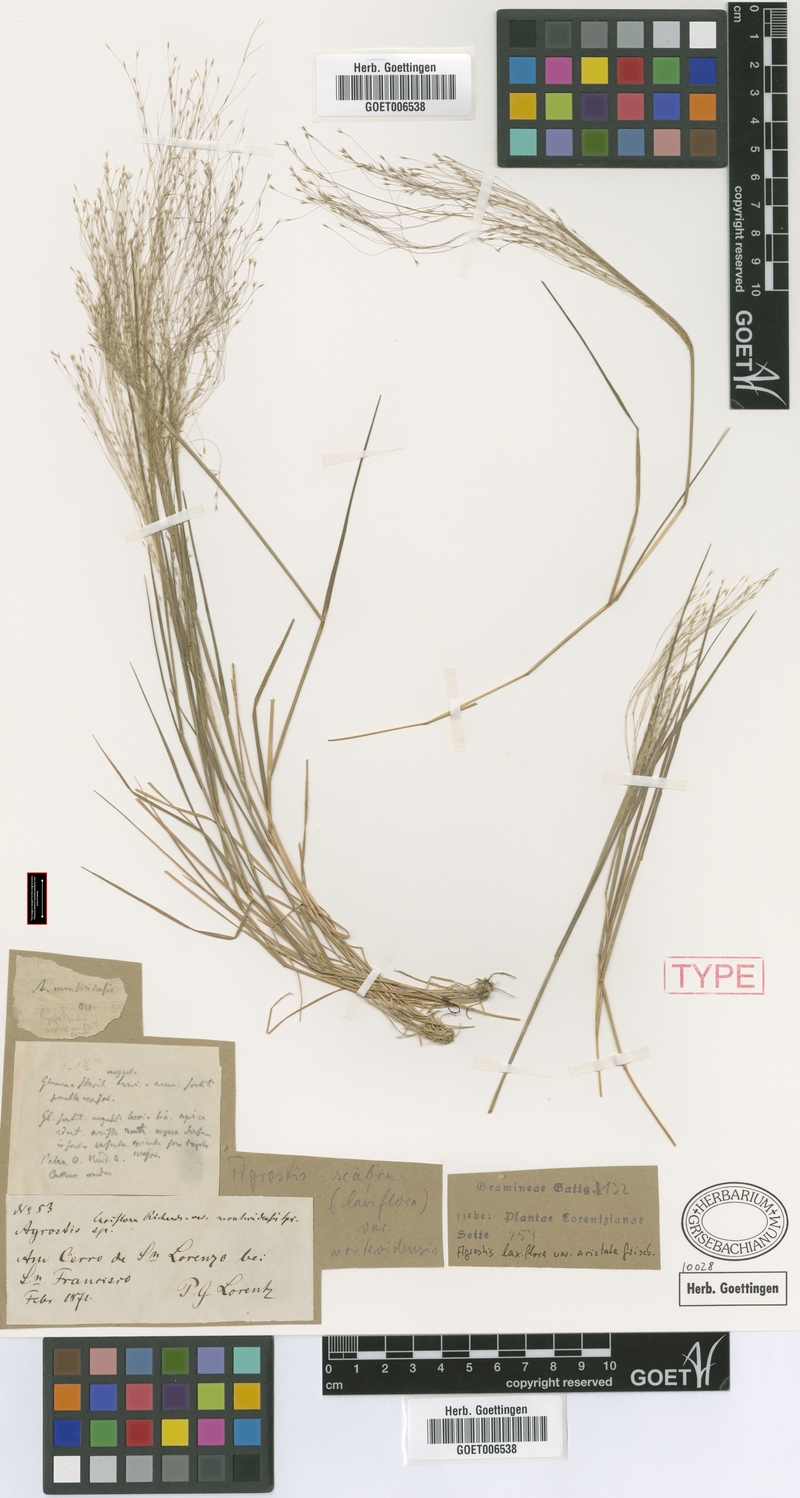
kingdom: Plantae
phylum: Tracheophyta
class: Liliopsida
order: Poales
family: Poaceae
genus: Agrostis
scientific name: Agrostis montevidensis
